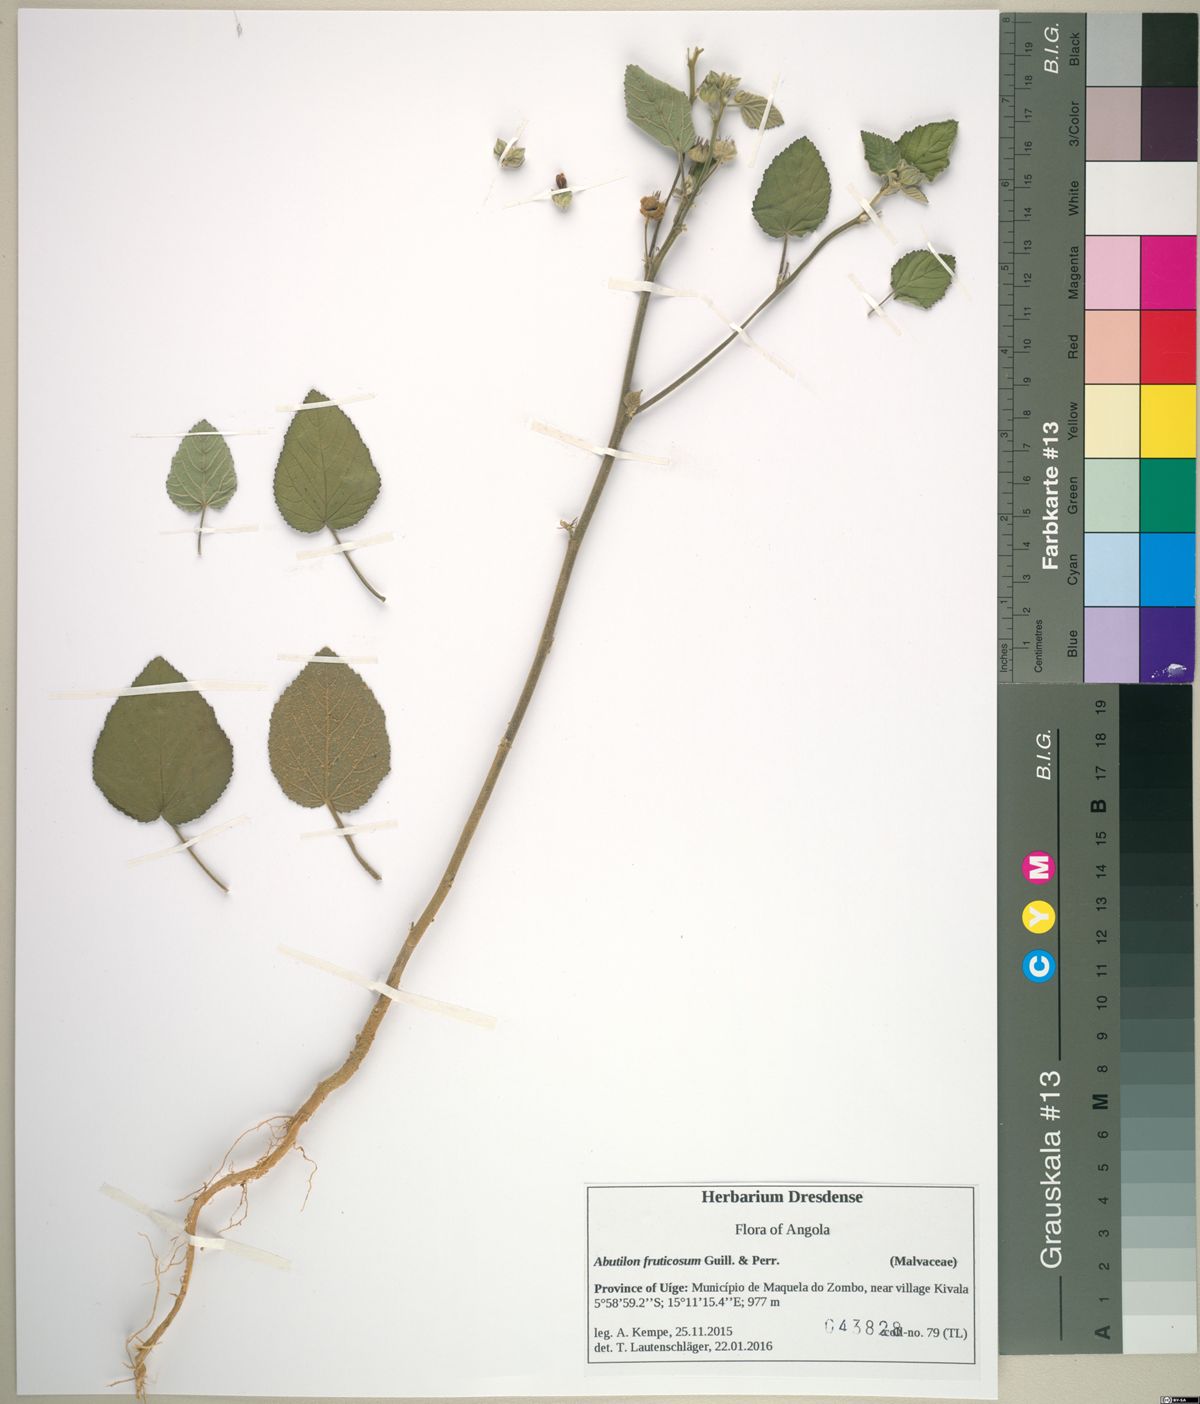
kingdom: Plantae
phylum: Tracheophyta
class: Magnoliopsida
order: Malvales
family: Malvaceae
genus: Sida
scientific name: Sida cordifolia
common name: Ilima
